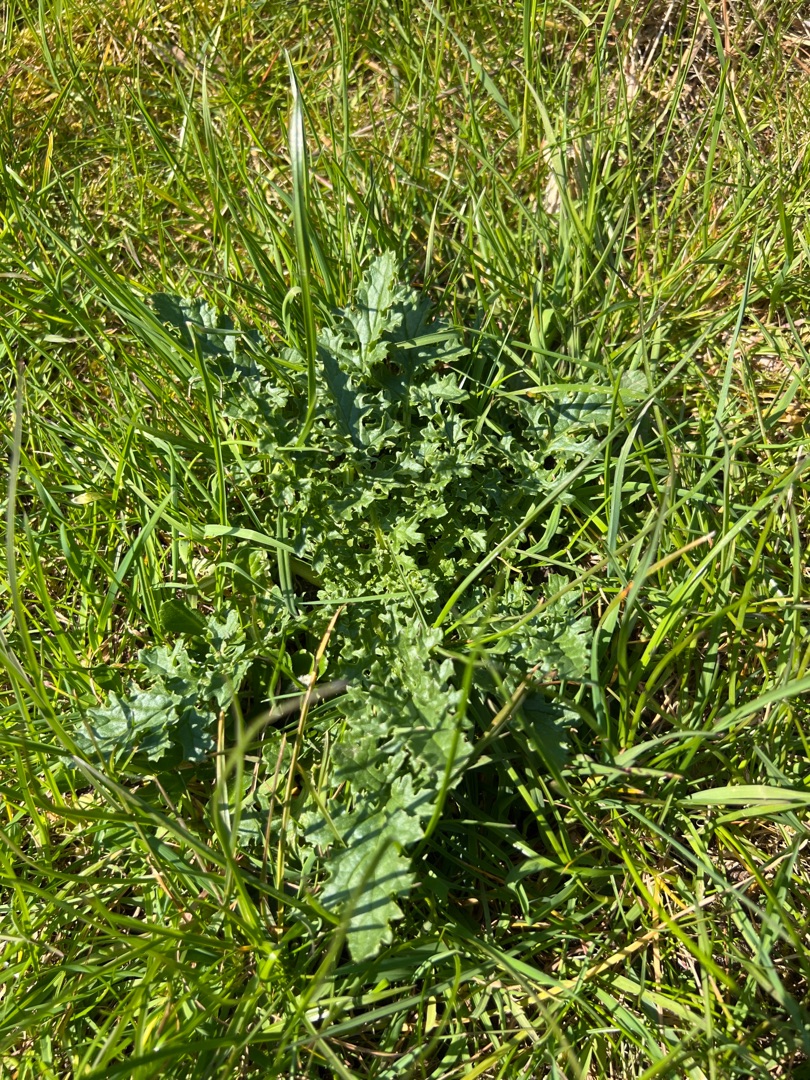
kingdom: Plantae
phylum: Tracheophyta
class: Magnoliopsida
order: Asterales
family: Asteraceae
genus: Jacobaea
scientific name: Jacobaea vulgaris
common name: Eng-brandbæger
